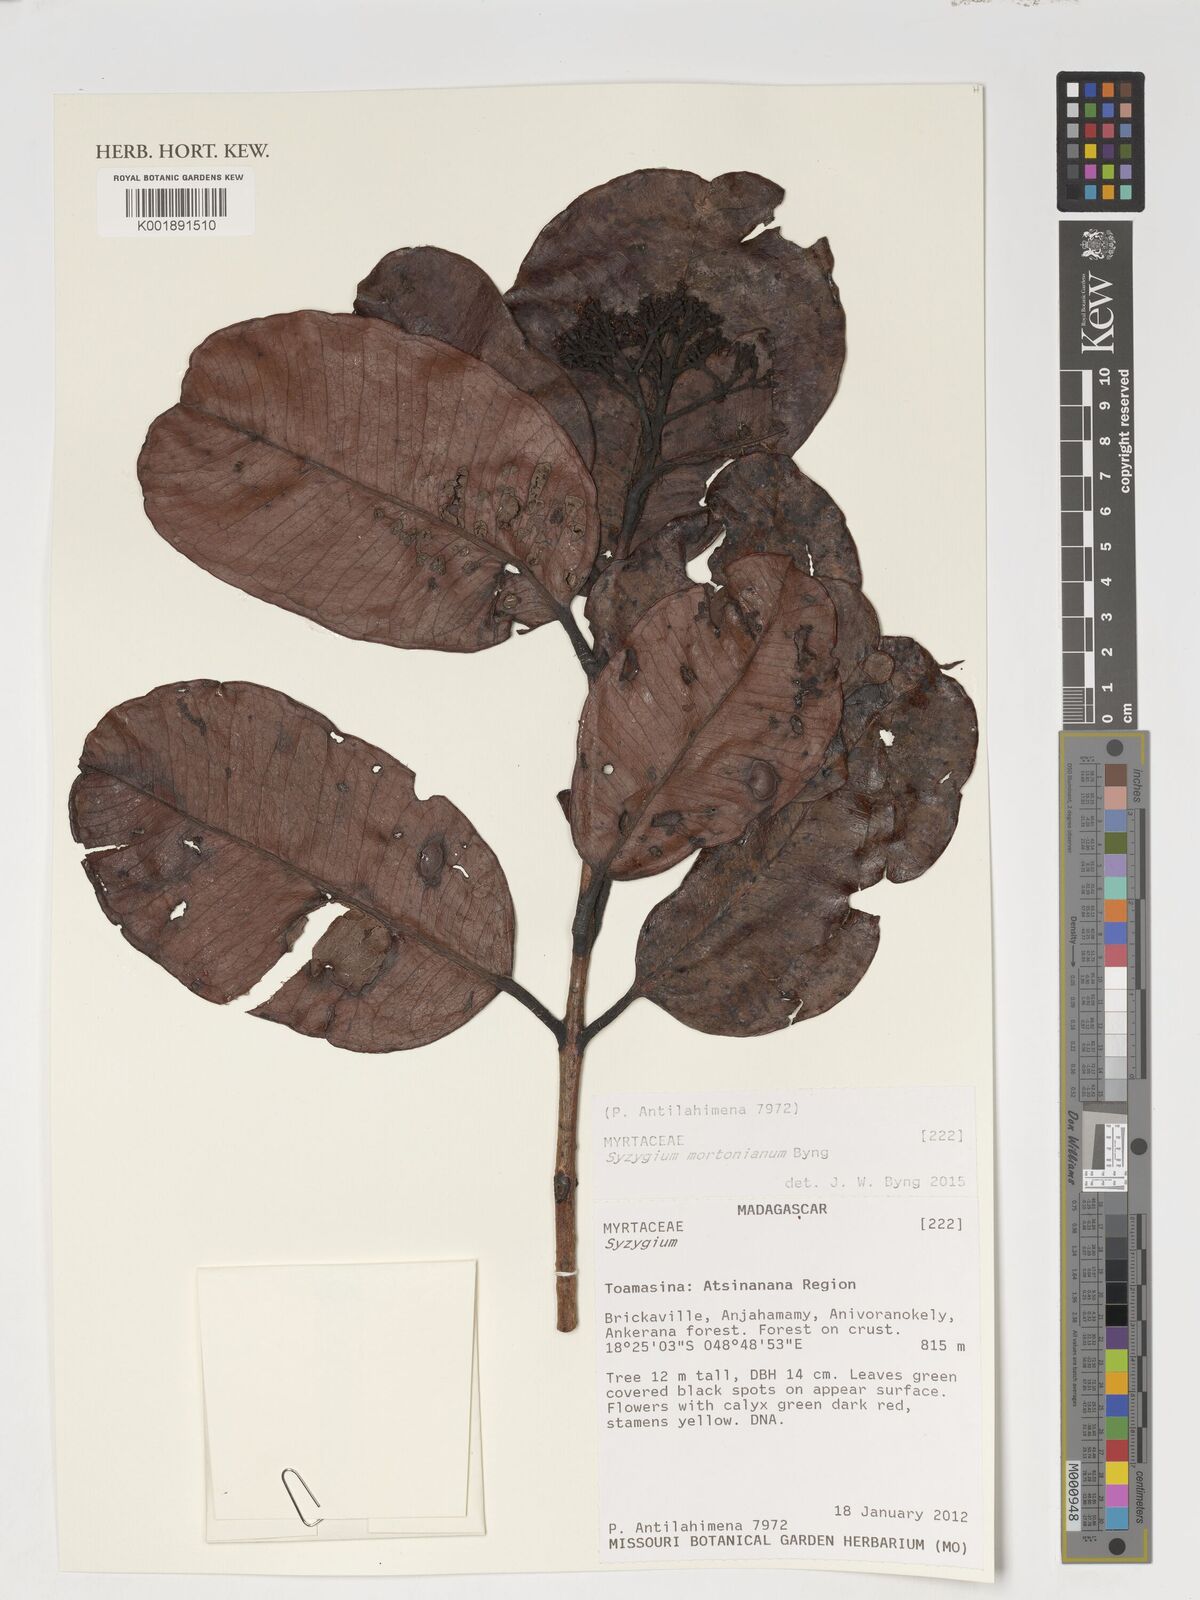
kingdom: Plantae
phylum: Tracheophyta
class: Magnoliopsida
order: Myrtales
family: Myrtaceae
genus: Syzygium
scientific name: Syzygium mortonianum
